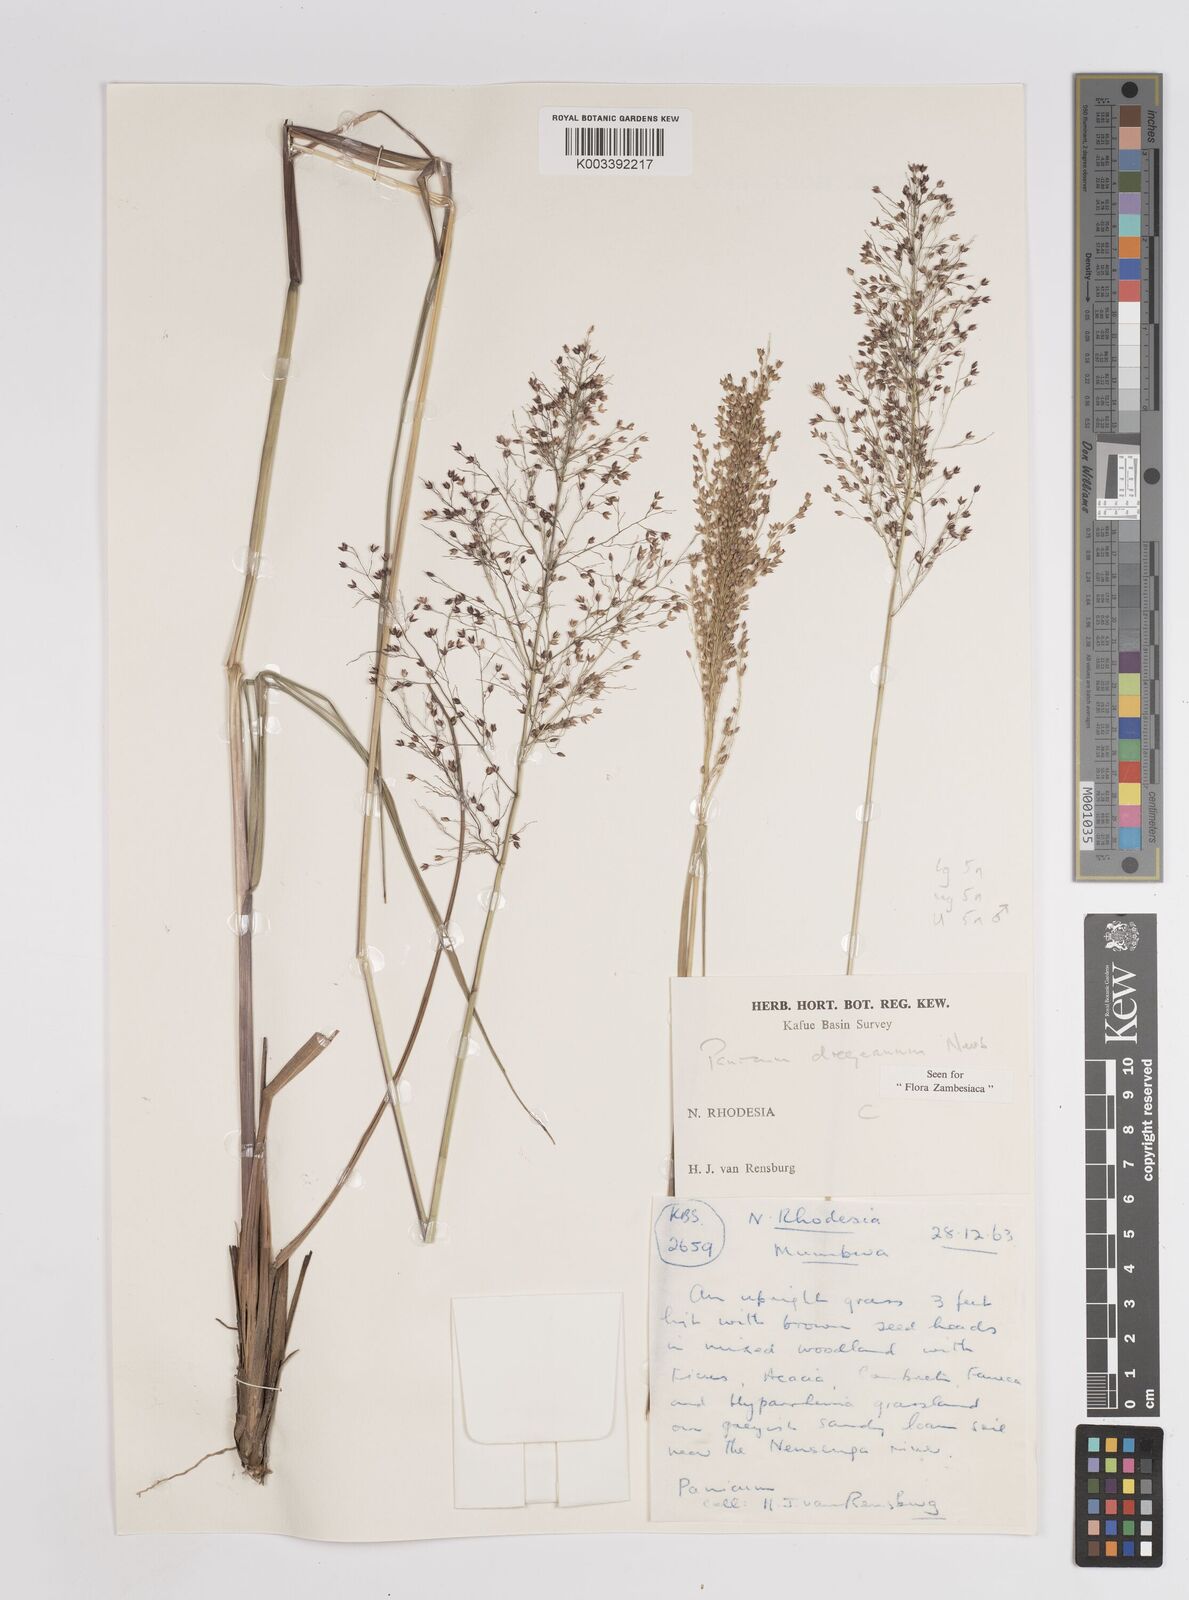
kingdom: Plantae
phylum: Tracheophyta
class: Liliopsida
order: Poales
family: Poaceae
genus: Panicum
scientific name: Panicum dregeanum
